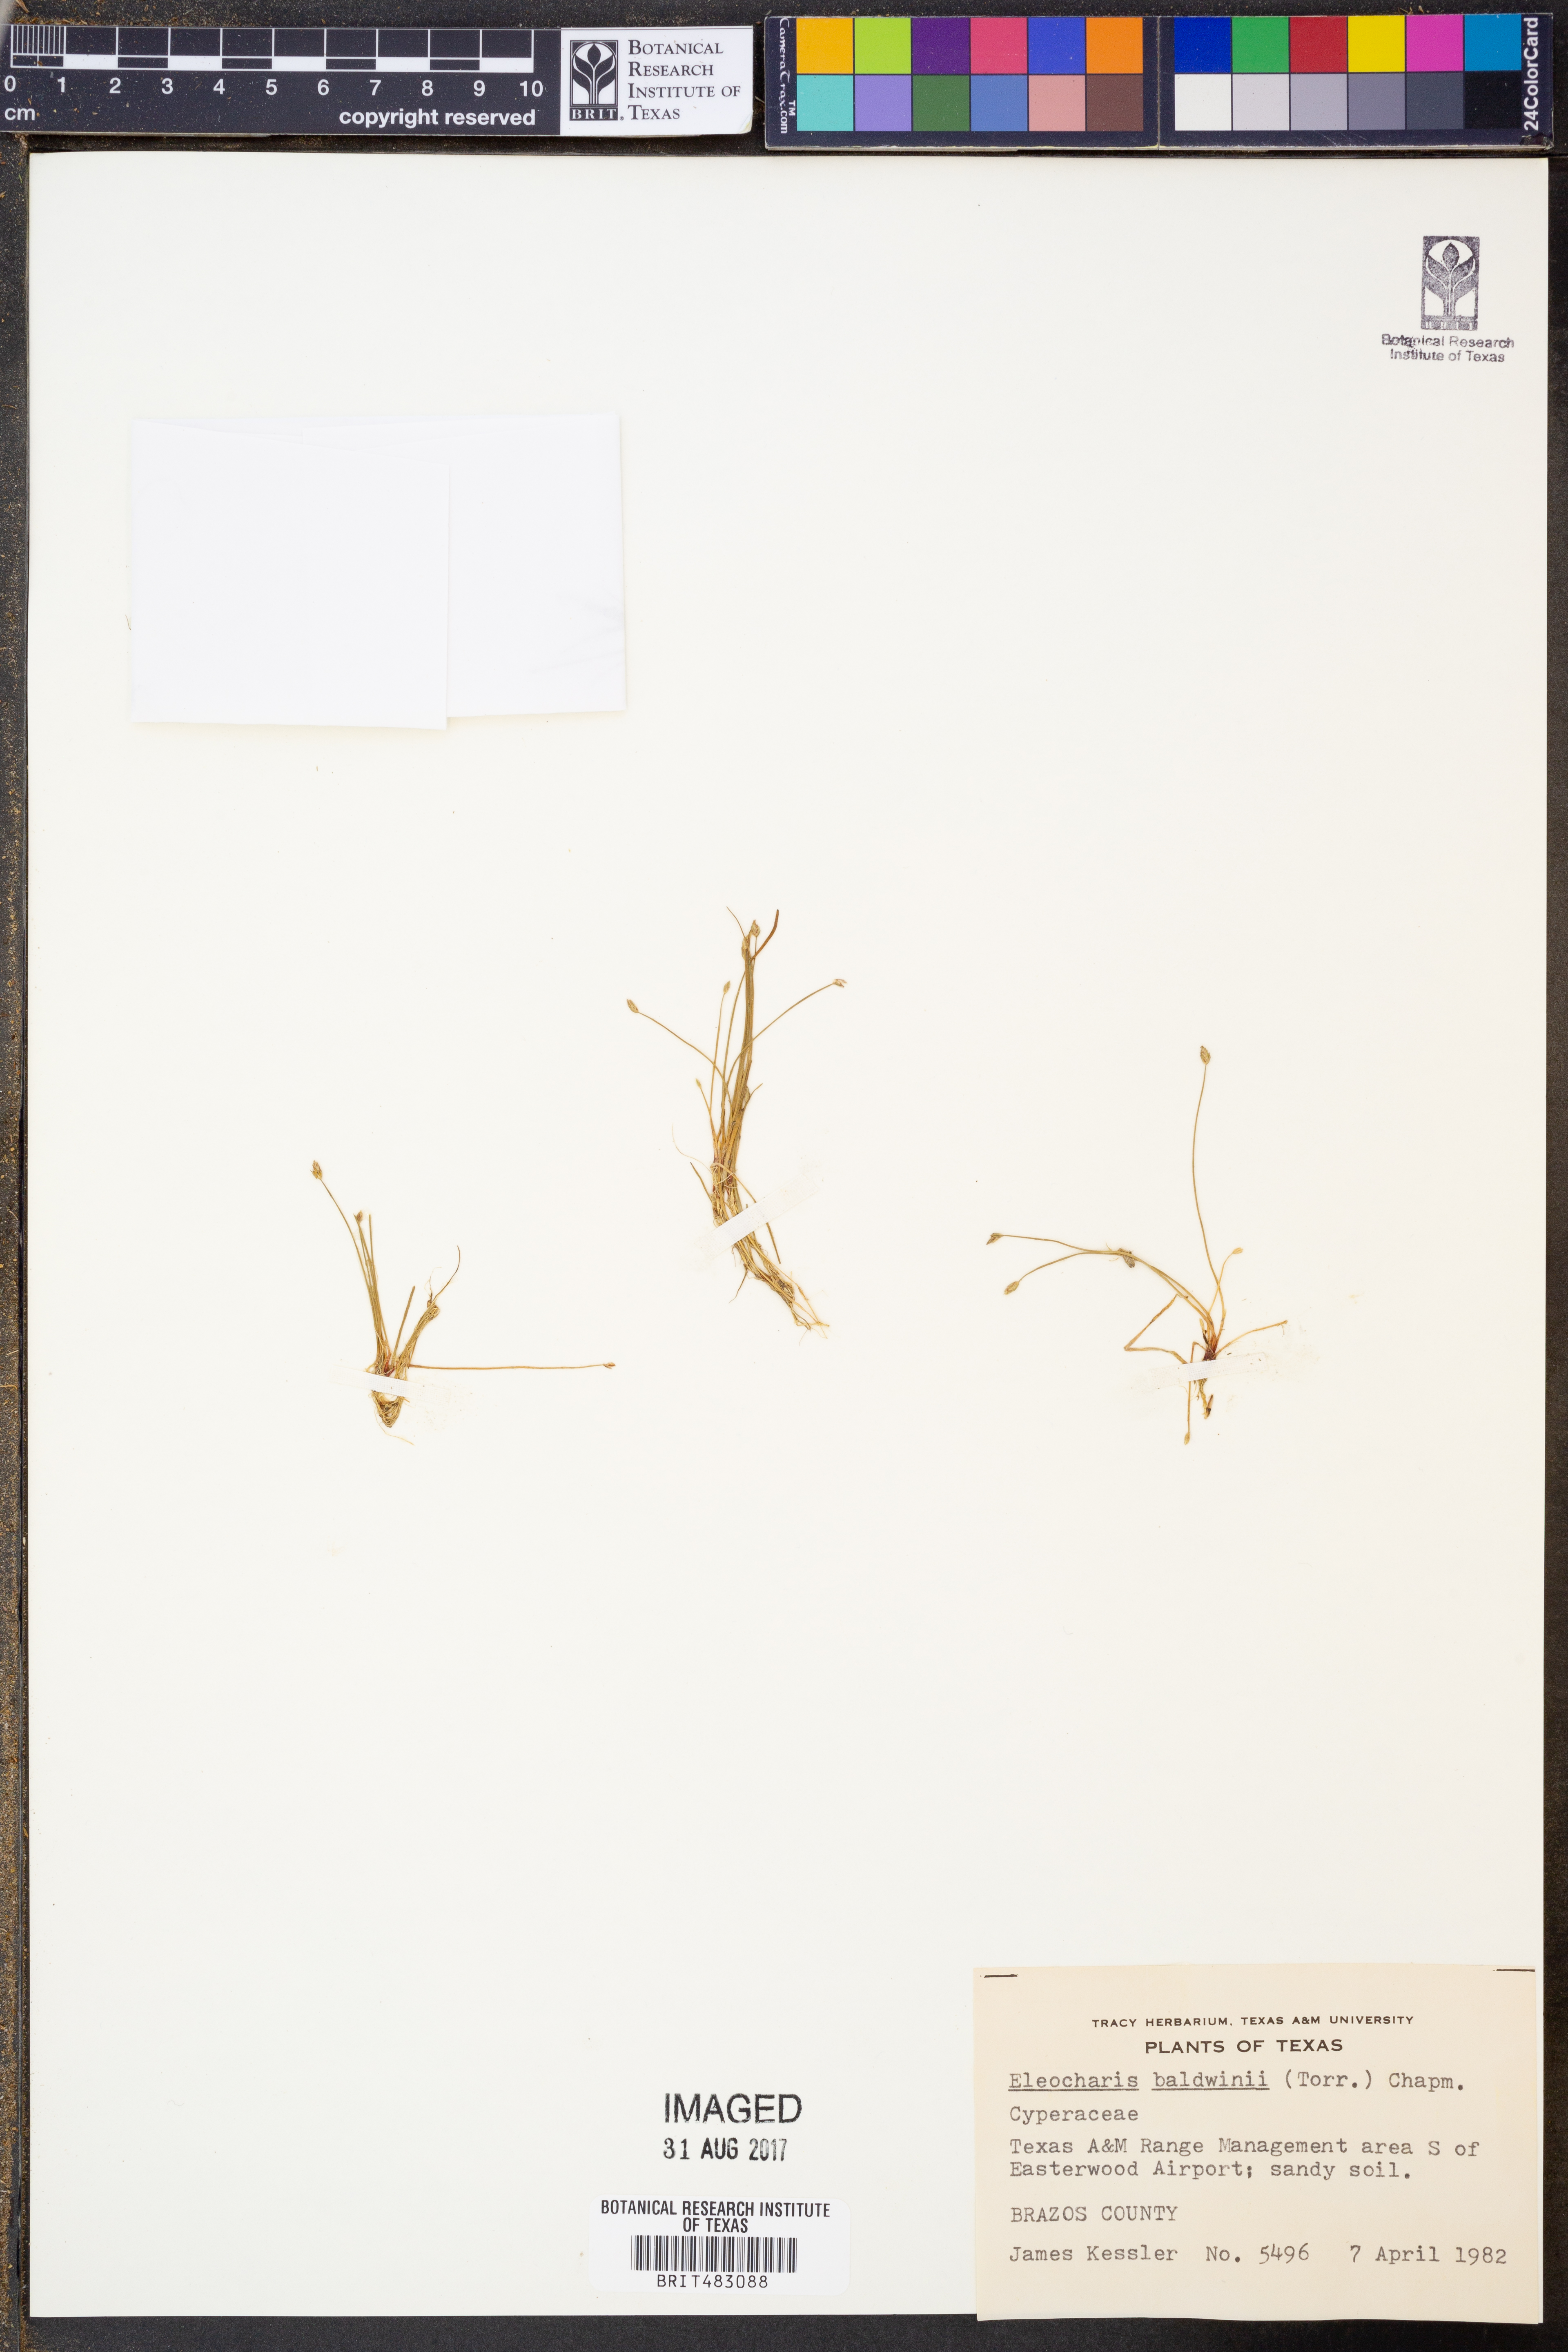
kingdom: Plantae
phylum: Tracheophyta
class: Liliopsida
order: Poales
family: Cyperaceae
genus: Eleocharis
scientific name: Eleocharis baldwinii
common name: Baldwin's spike-rush
